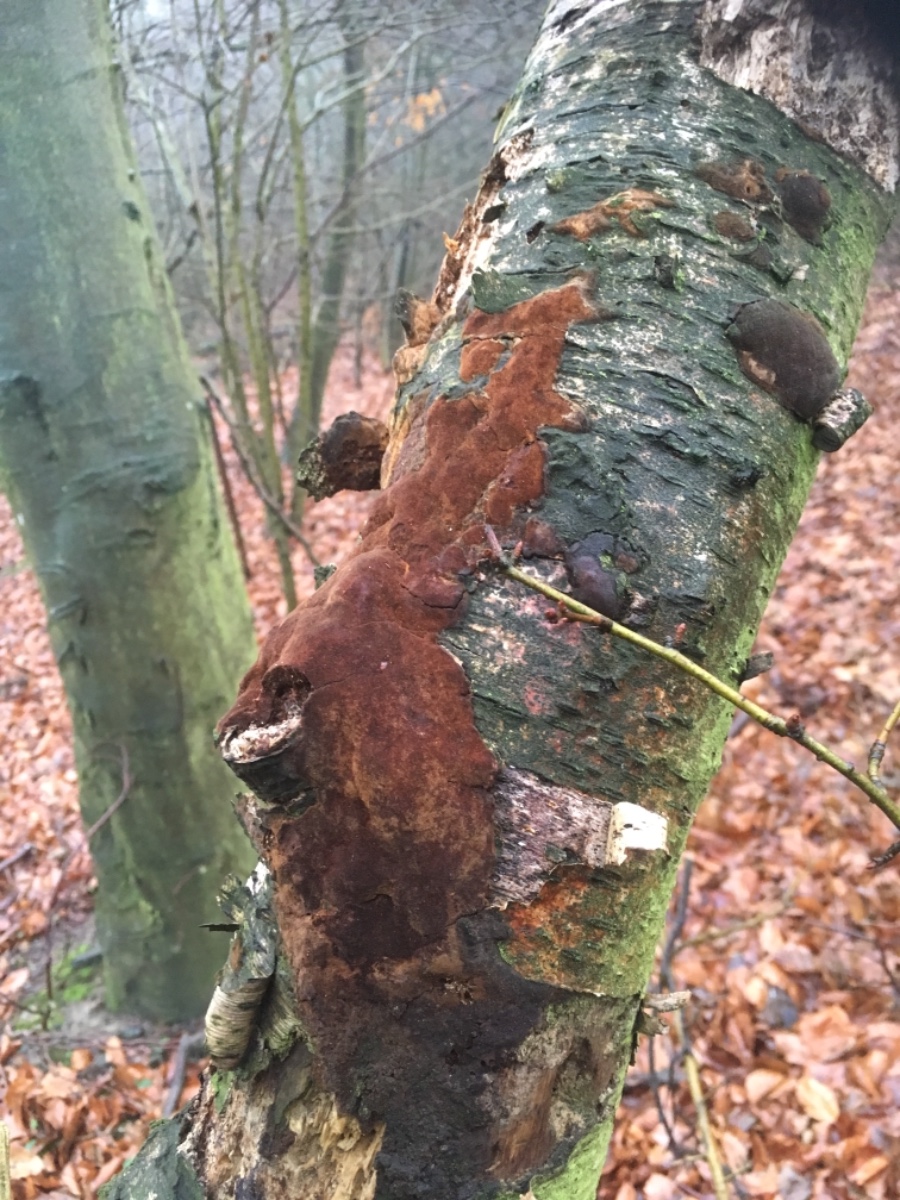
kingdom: Fungi
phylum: Basidiomycota
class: Agaricomycetes
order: Hymenochaetales
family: Hymenochaetaceae
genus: Fomitiporia
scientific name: Fomitiporia
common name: ildporesvamp
